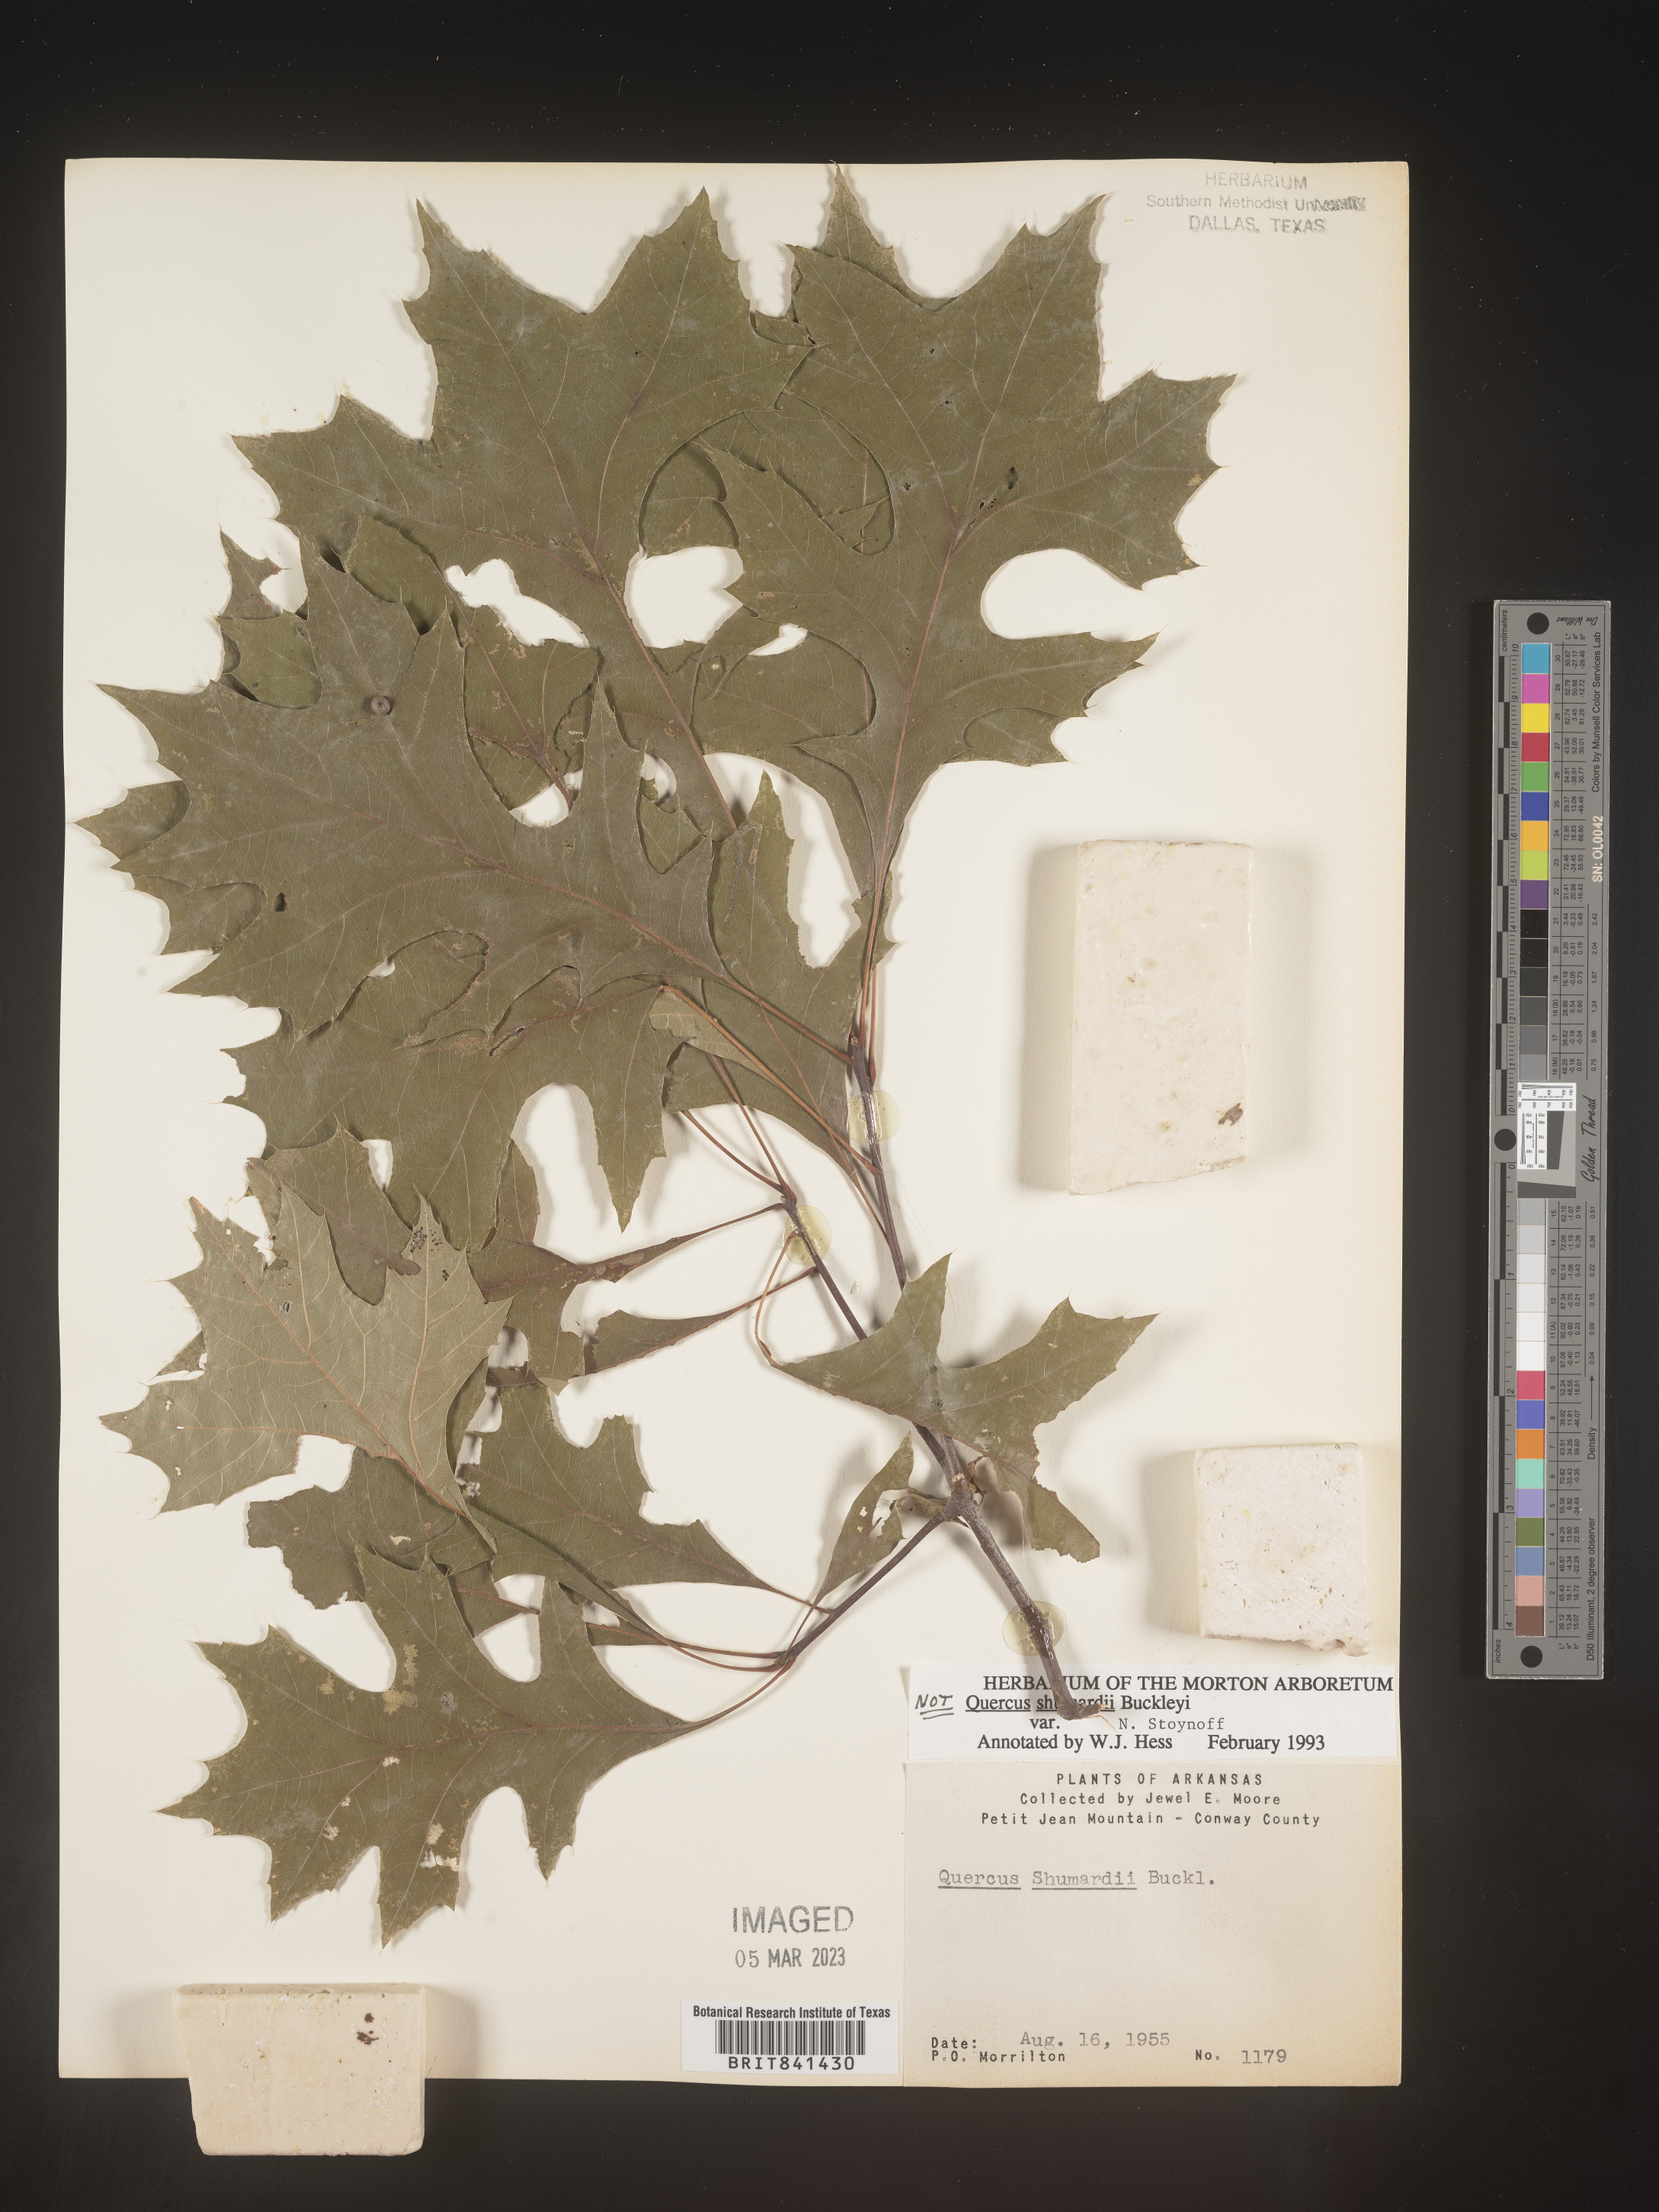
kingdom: Plantae
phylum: Tracheophyta
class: Magnoliopsida
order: Fagales
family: Fagaceae
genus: Quercus
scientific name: Quercus shumardii
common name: Shumard oak
